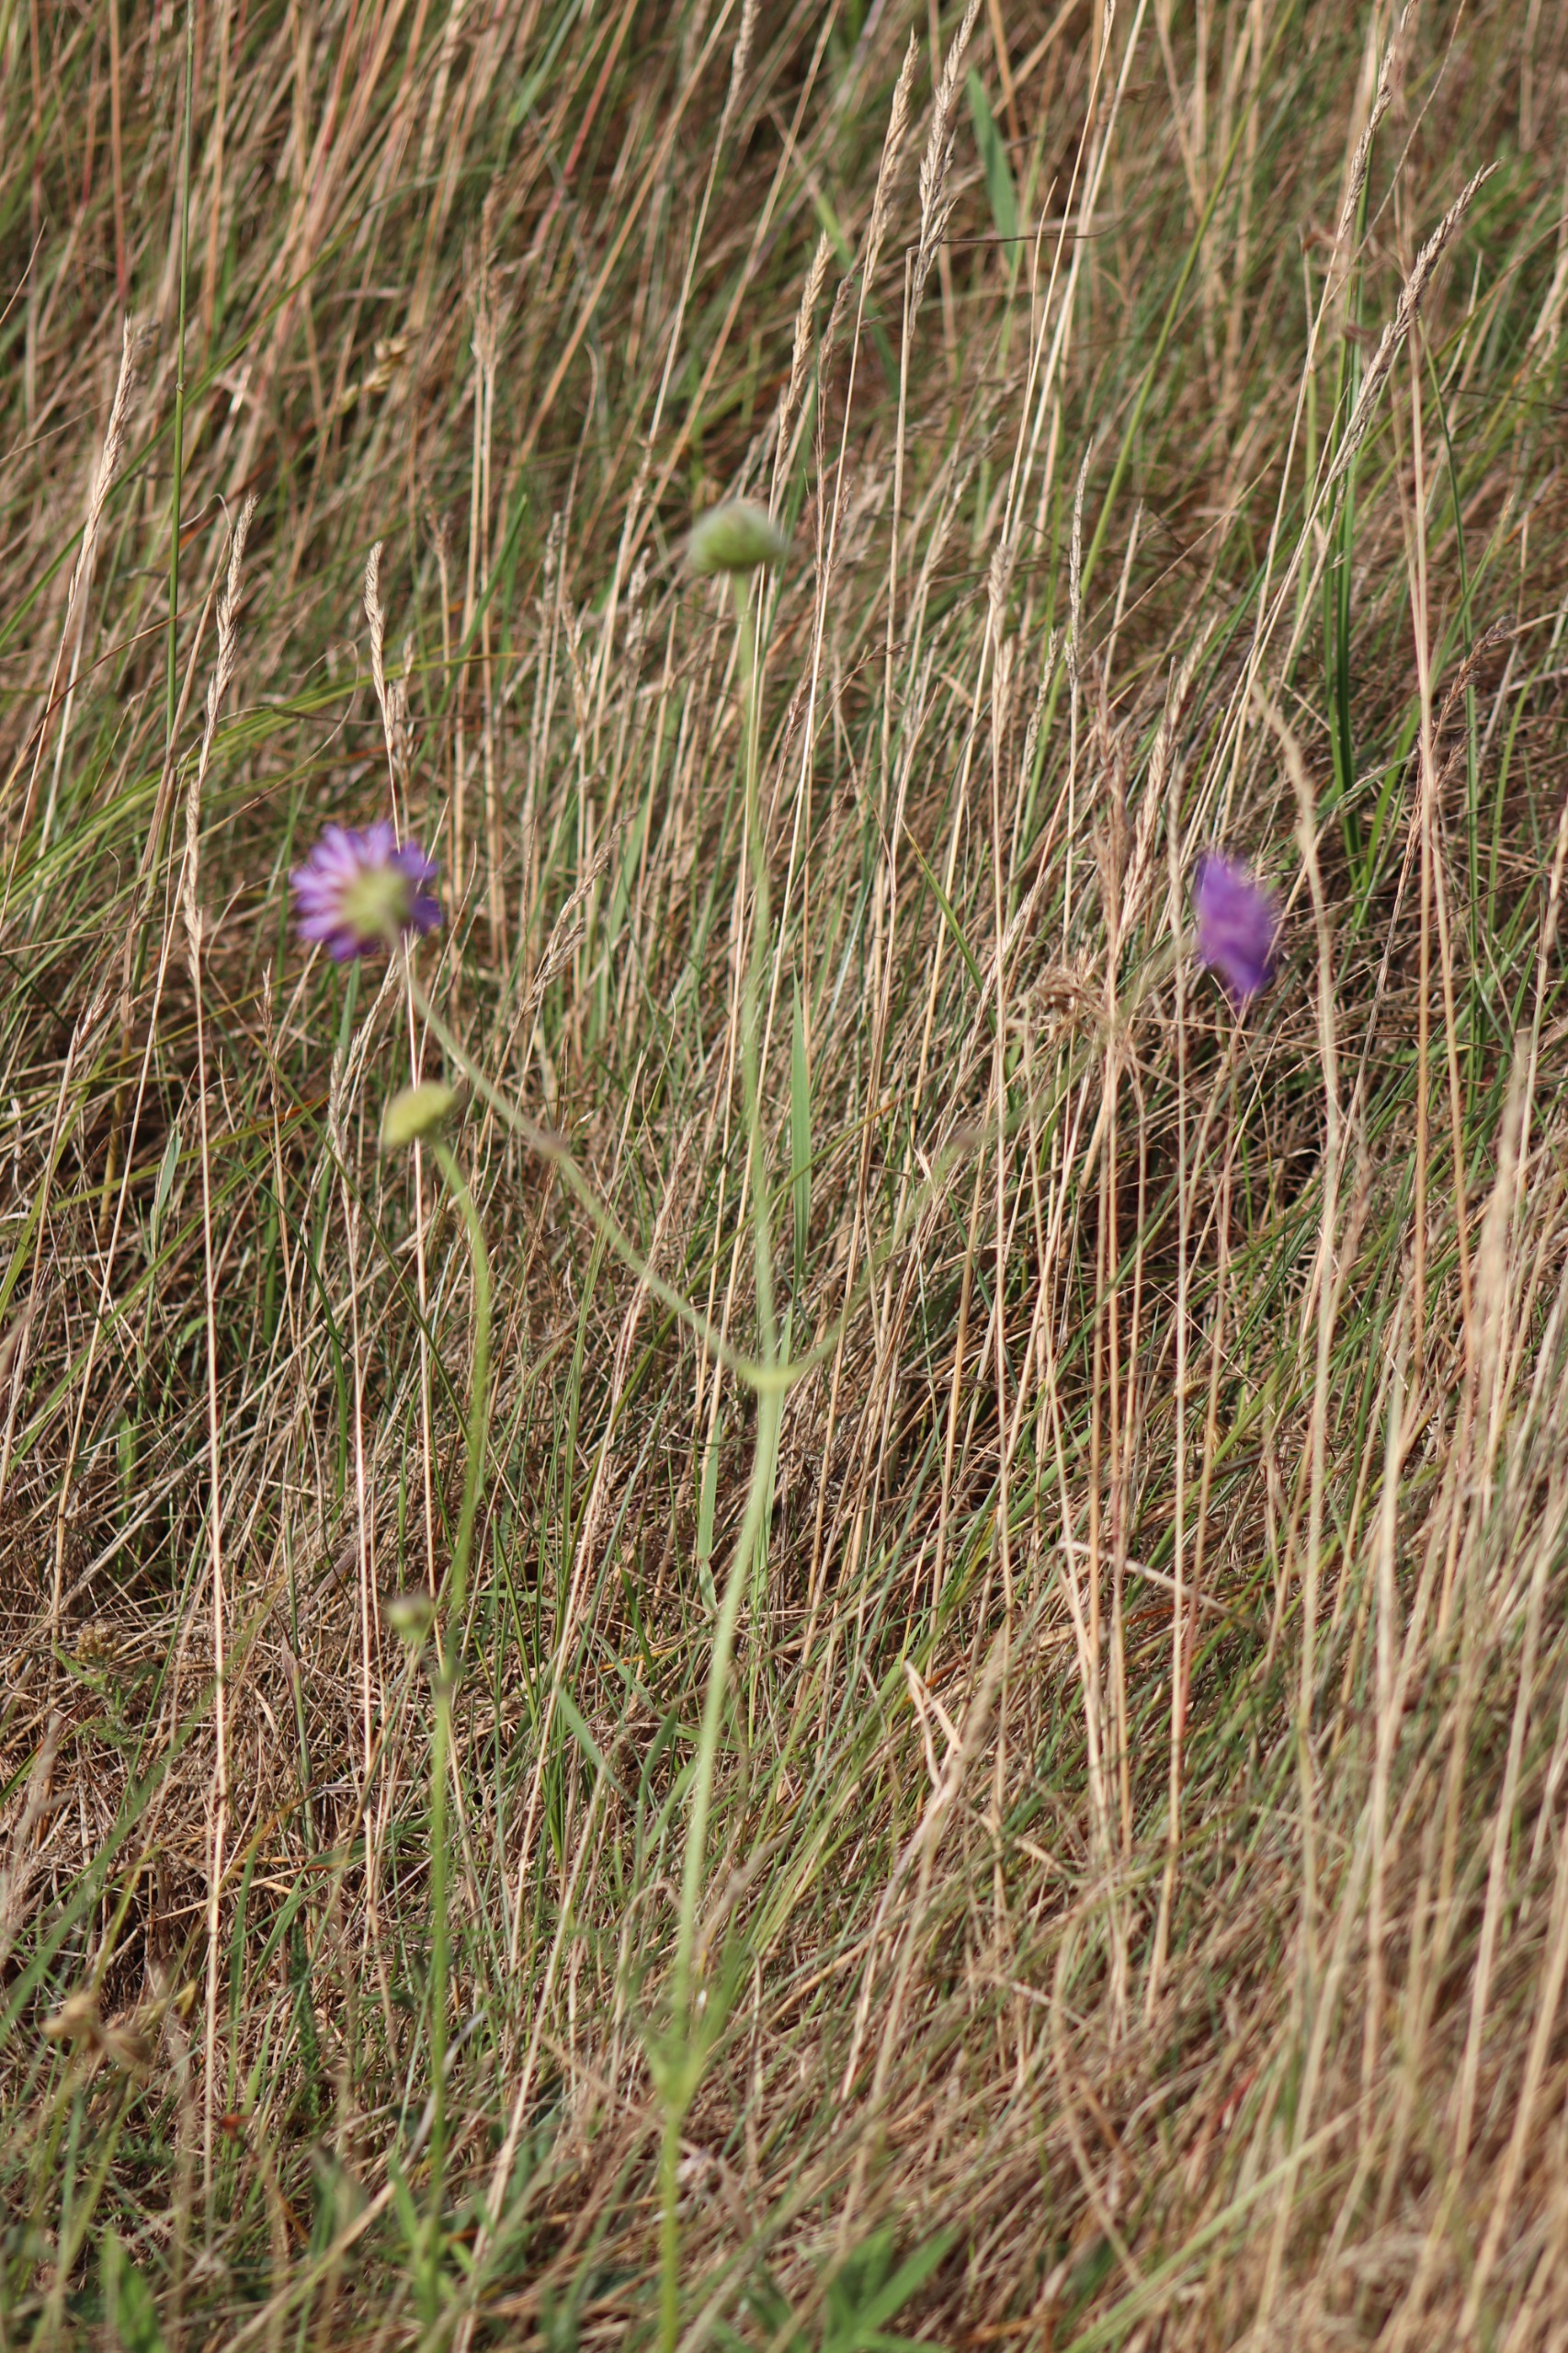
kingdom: Plantae
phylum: Tracheophyta
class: Magnoliopsida
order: Dipsacales
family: Caprifoliaceae
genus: Knautia
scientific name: Knautia arvensis
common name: Blåhat
